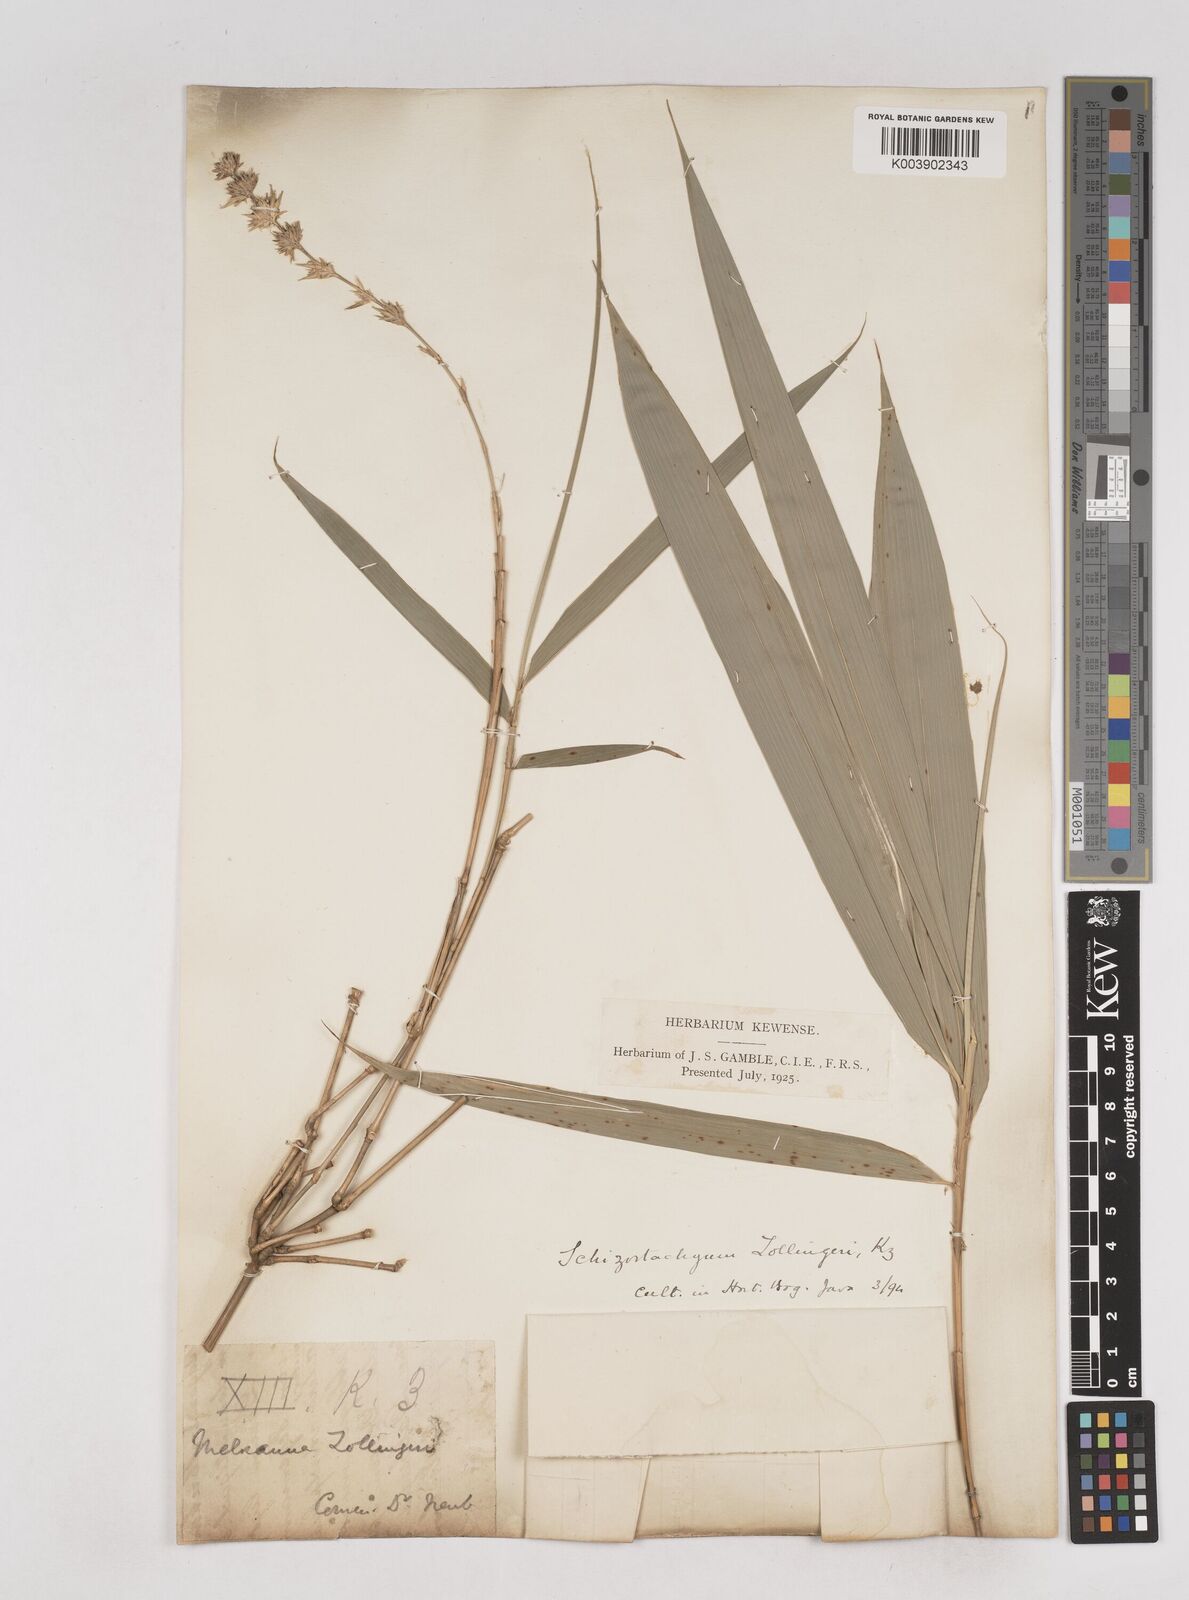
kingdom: Plantae
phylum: Tracheophyta
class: Liliopsida
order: Poales
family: Poaceae
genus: Schizostachyum
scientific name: Schizostachyum zollingeri
